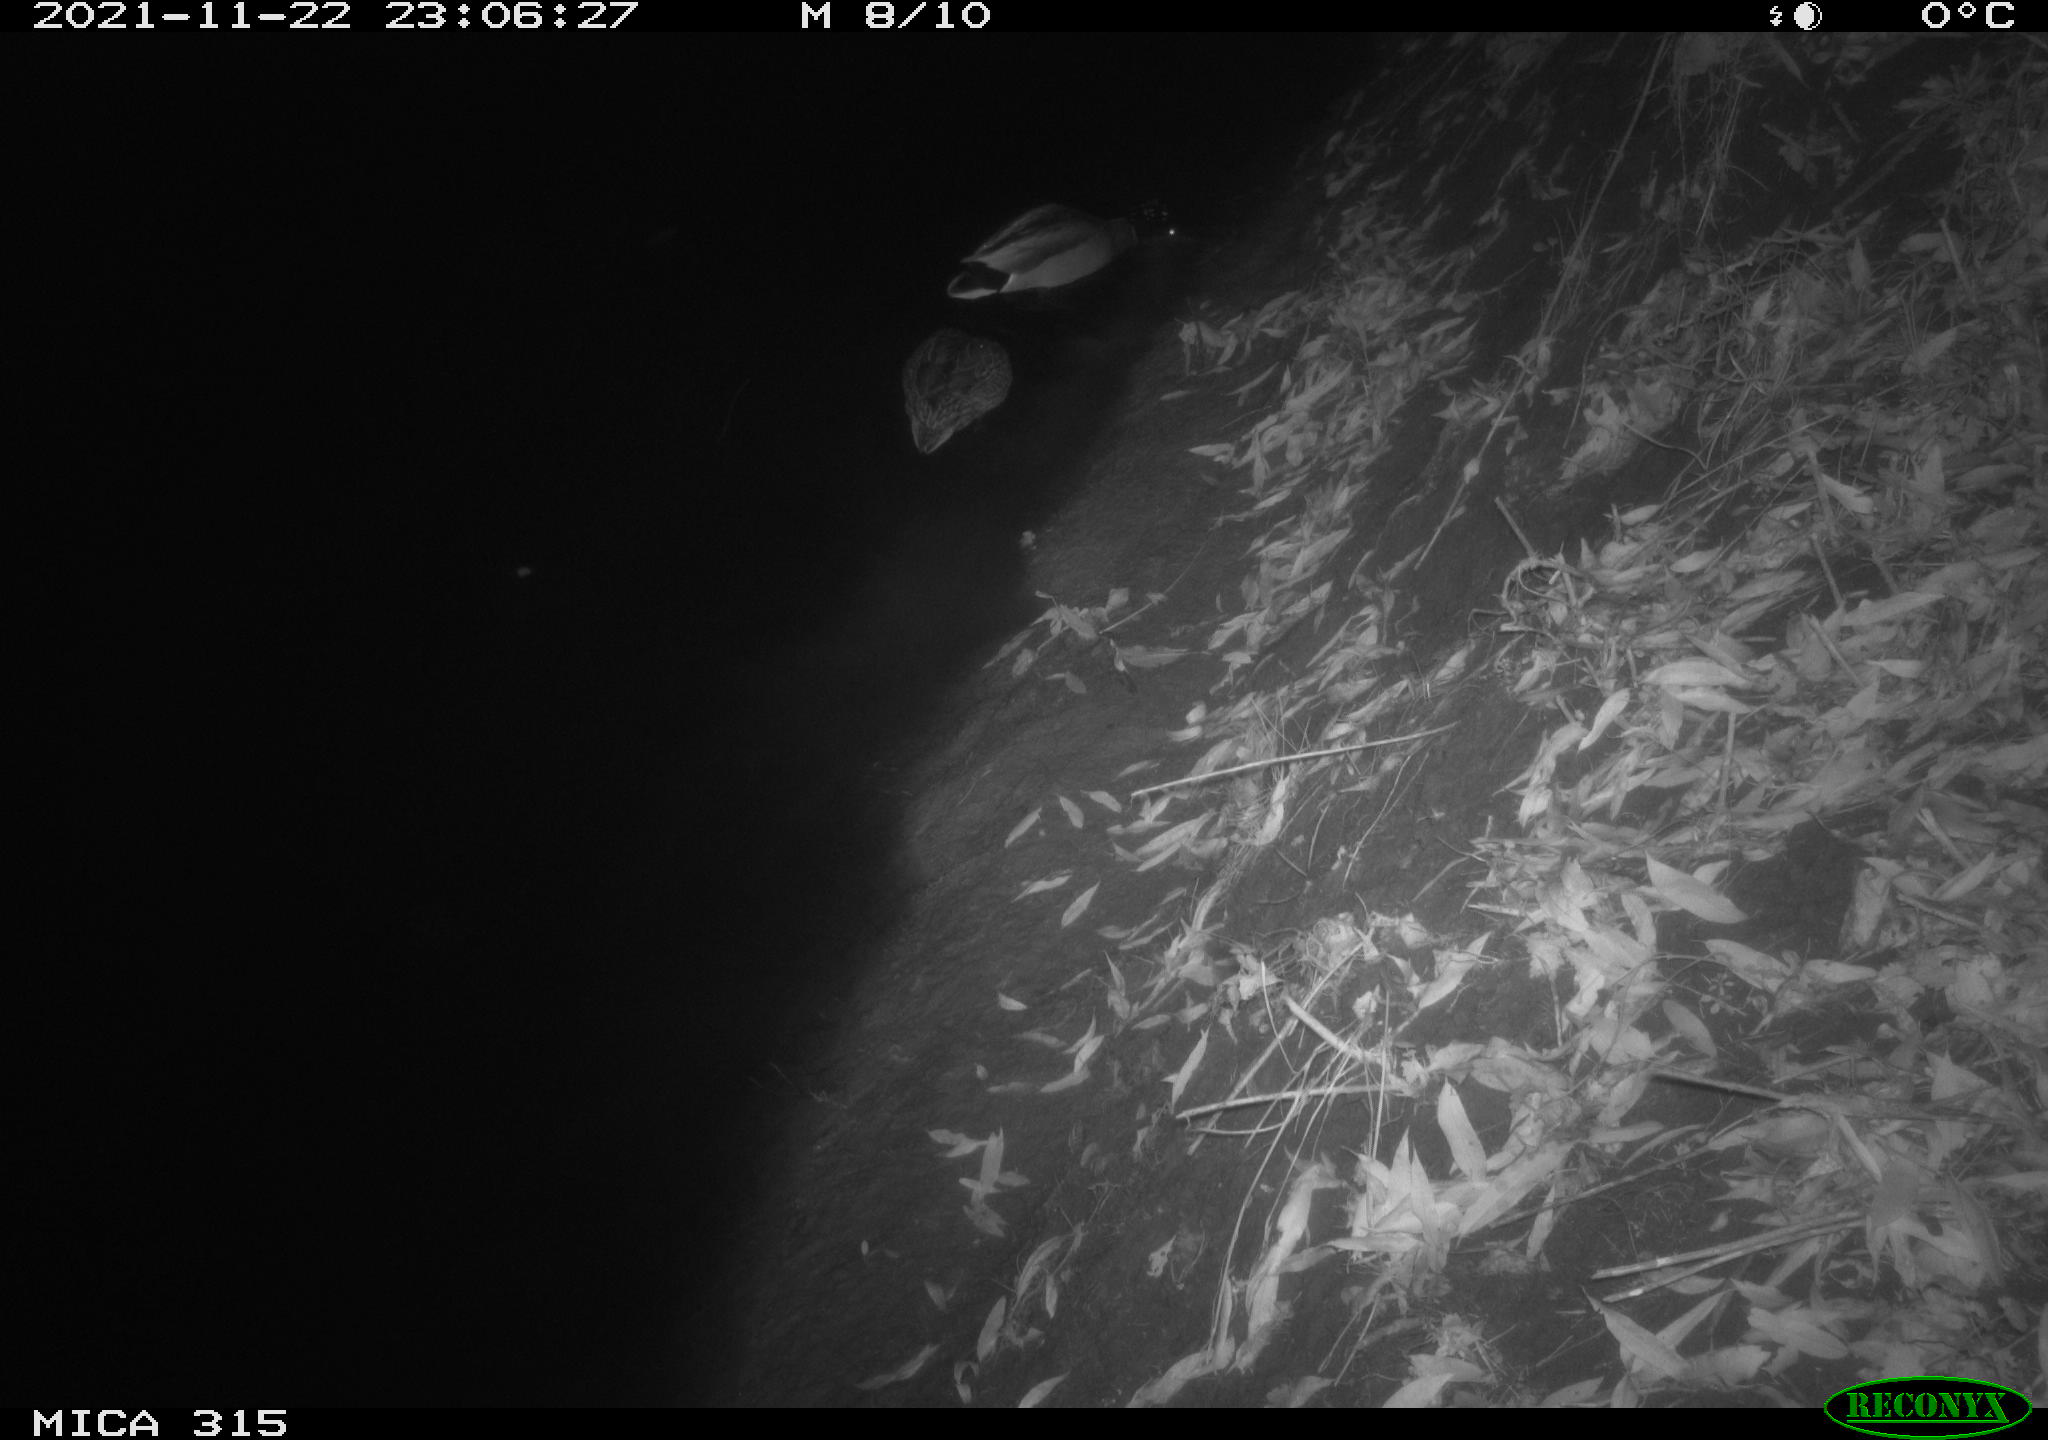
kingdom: Animalia
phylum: Chordata
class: Aves
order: Anseriformes
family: Anatidae
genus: Anas
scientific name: Anas platyrhynchos
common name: Mallard
